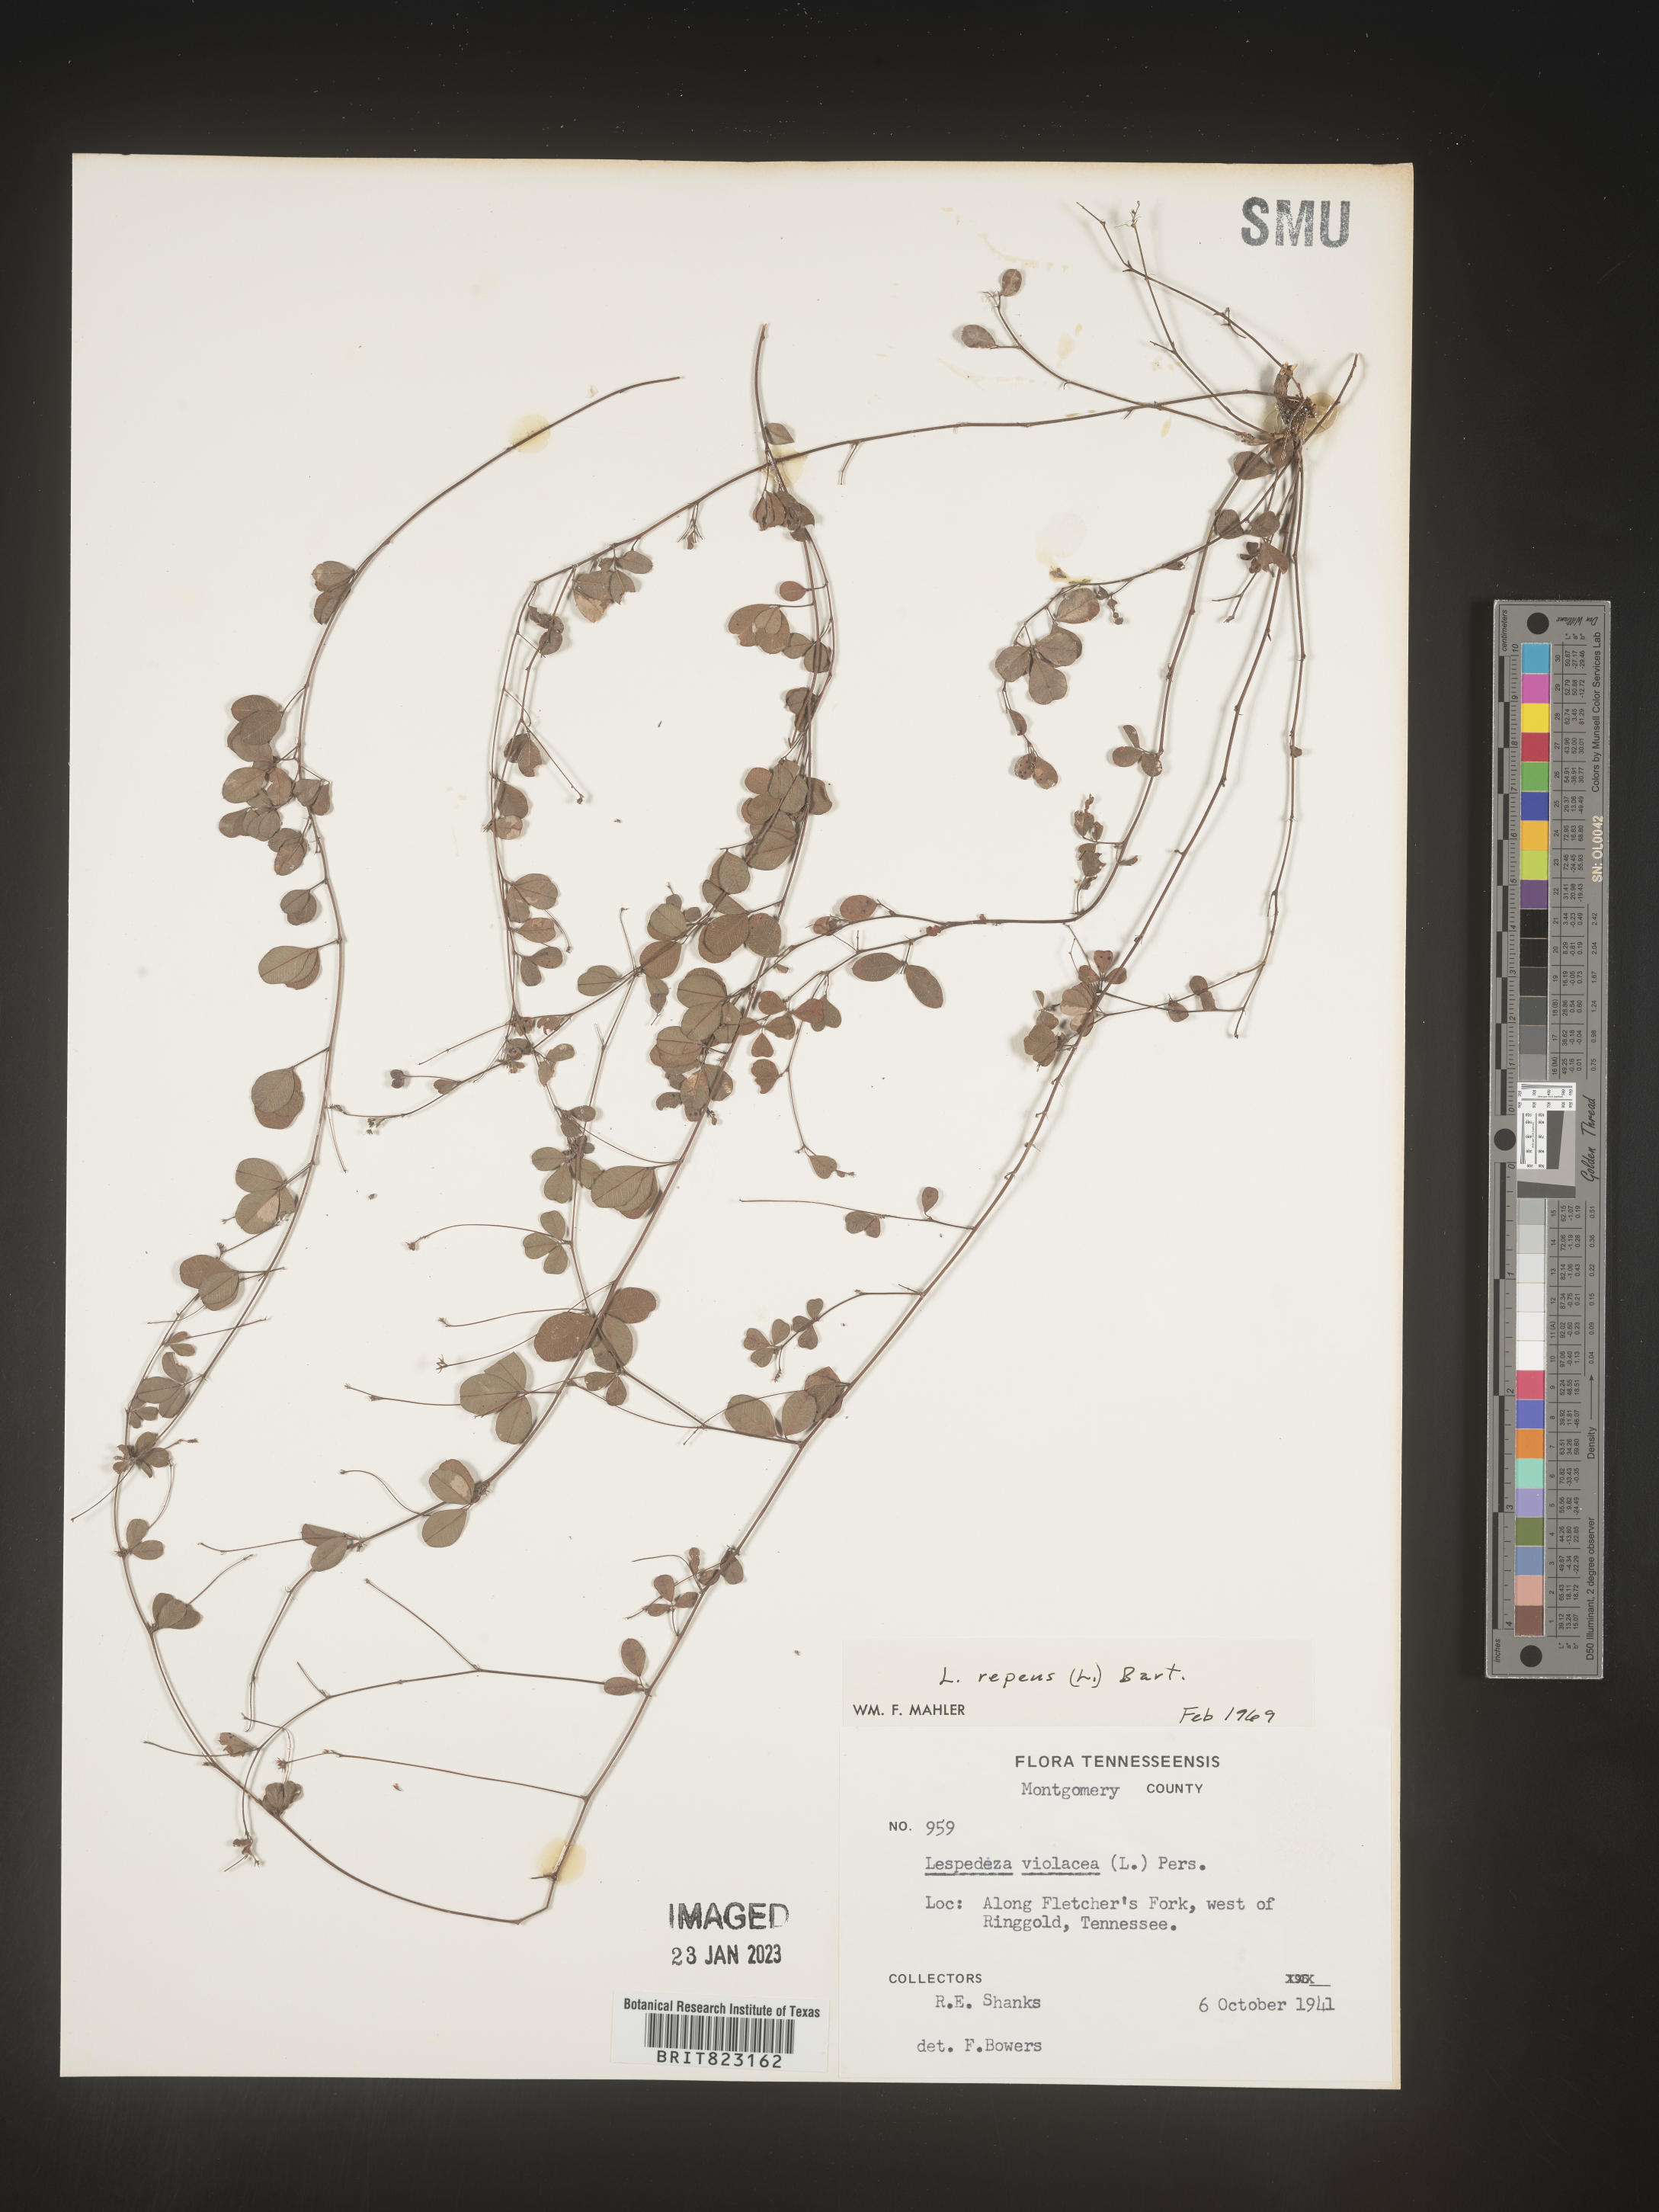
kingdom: Plantae
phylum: Tracheophyta
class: Magnoliopsida
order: Fabales
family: Fabaceae
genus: Lespedeza
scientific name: Lespedeza repens
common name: Creeping bush-clover
